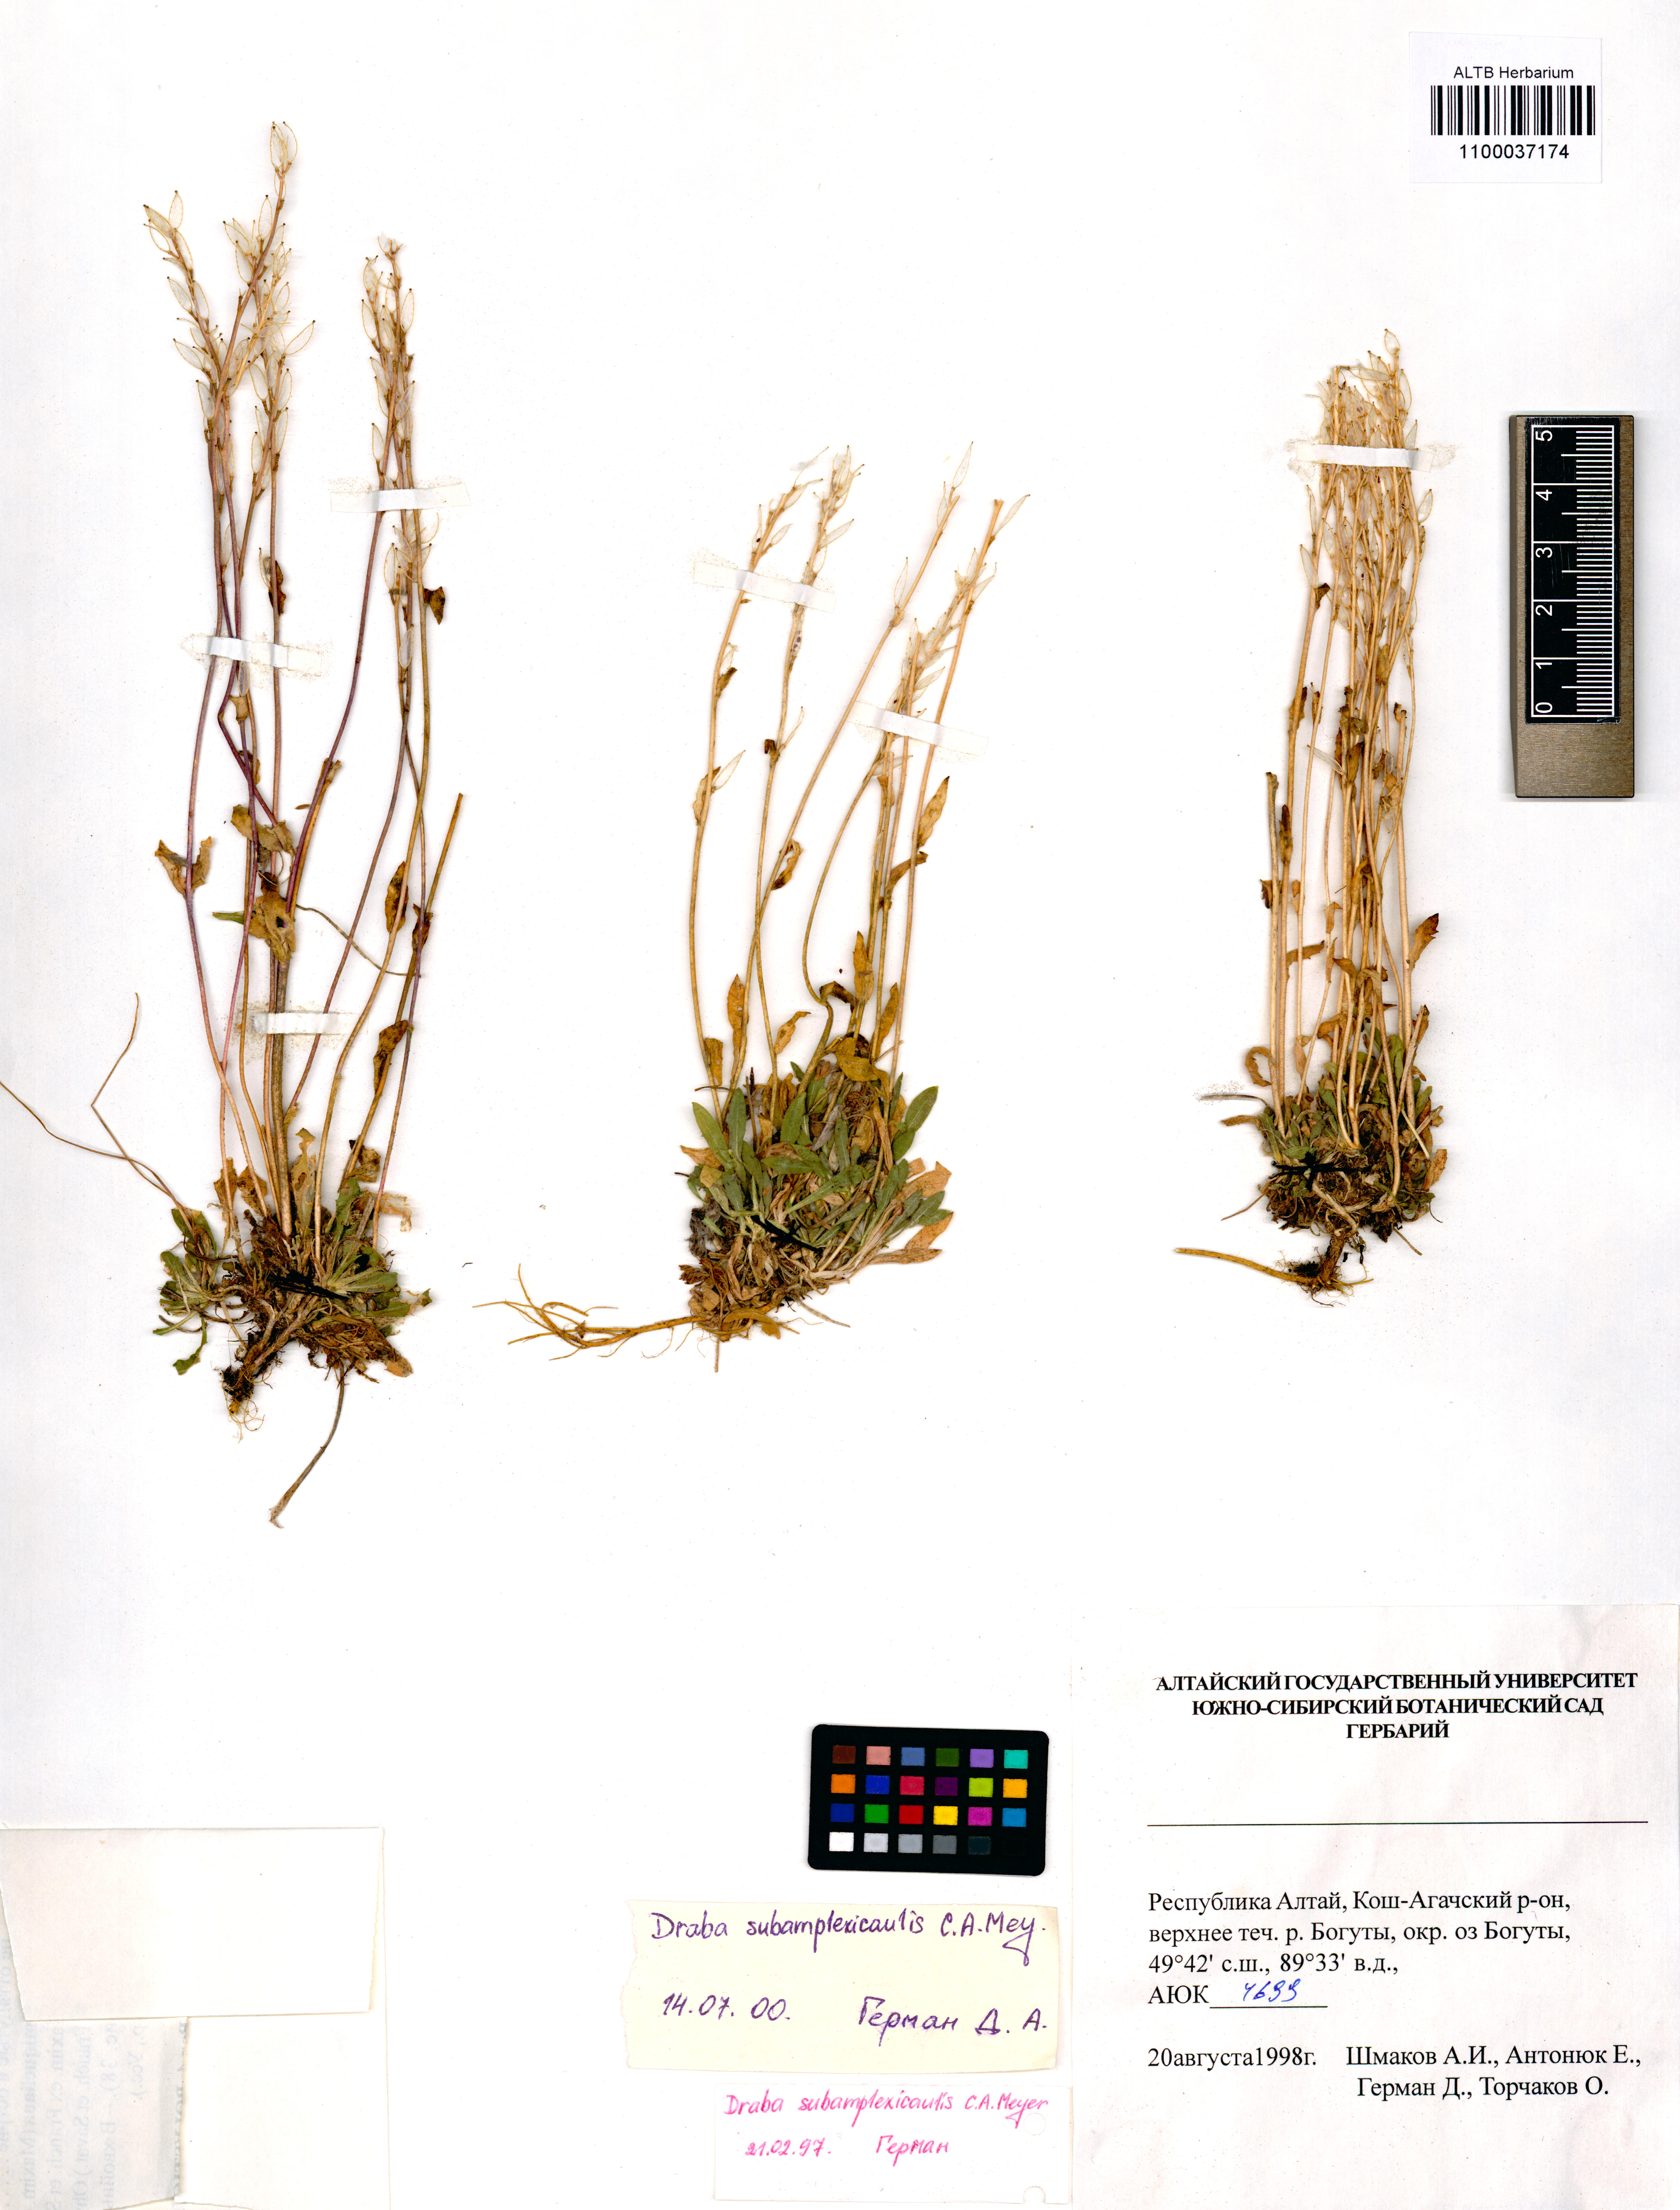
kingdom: Plantae
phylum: Tracheophyta
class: Magnoliopsida
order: Brassicales
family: Brassicaceae
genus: Draba
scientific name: Draba subamplexicaulis
